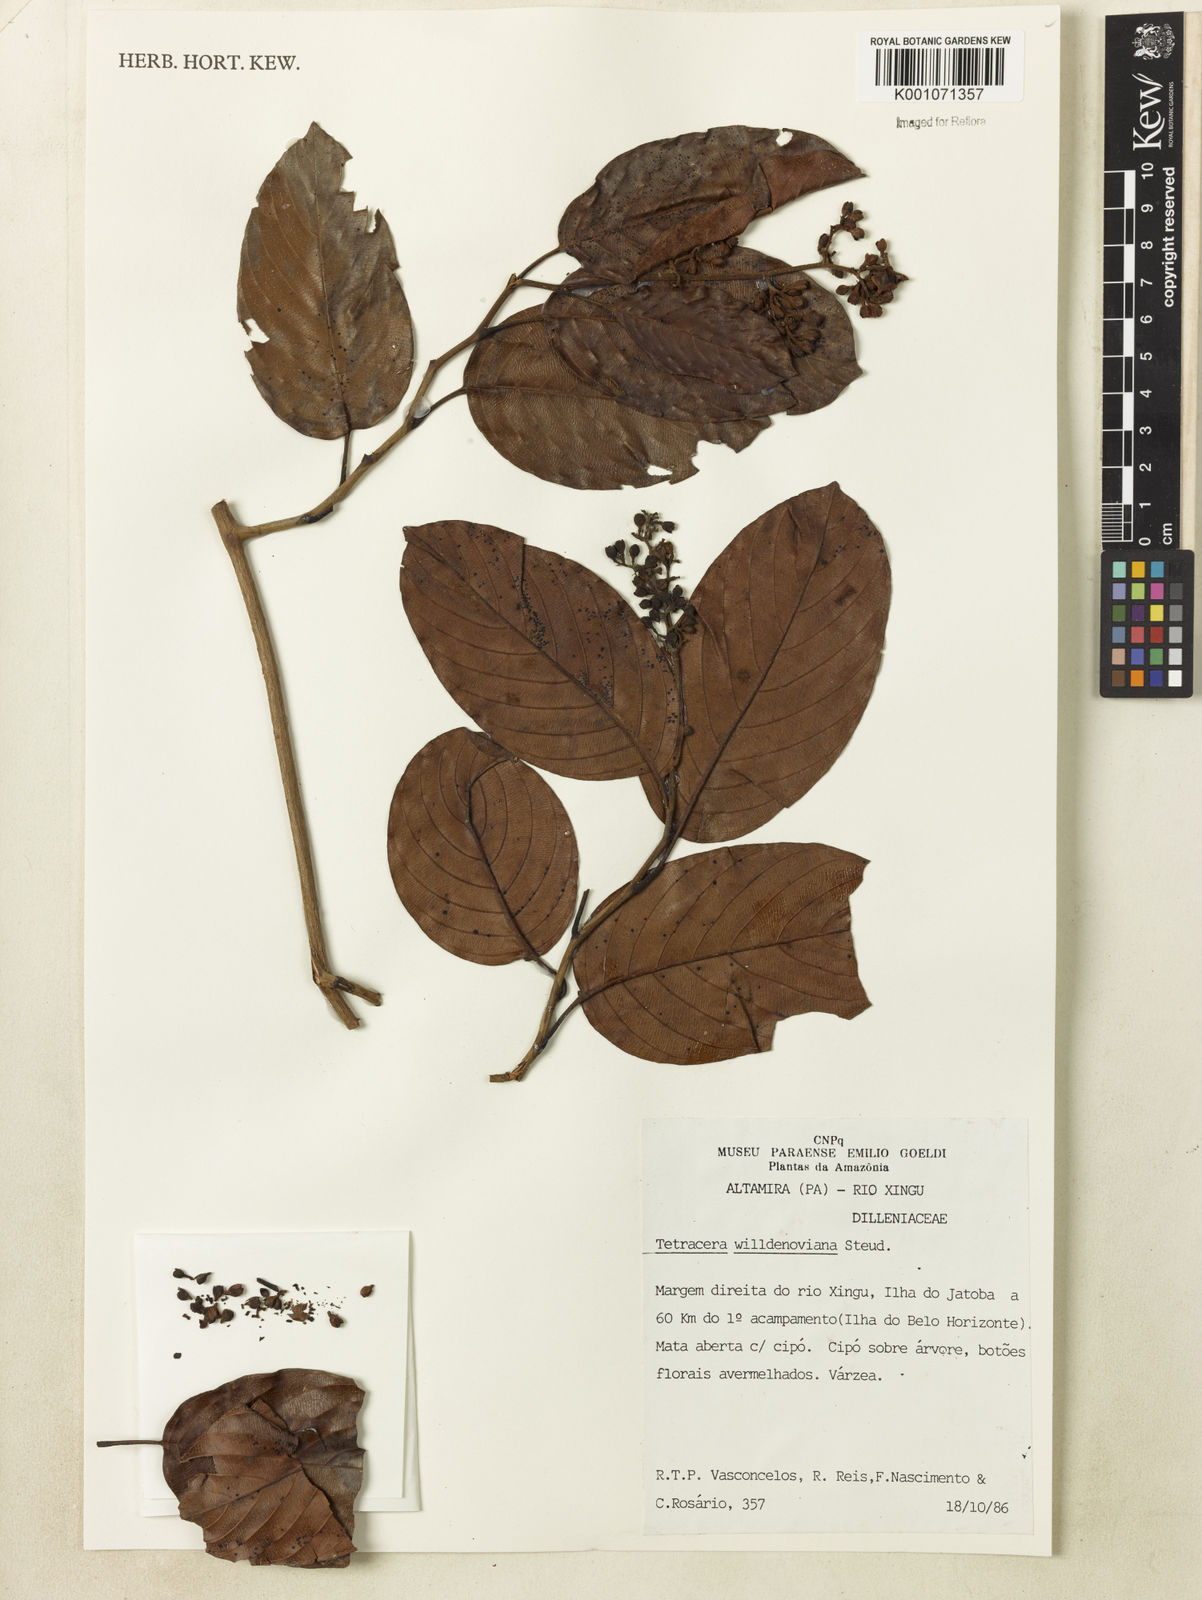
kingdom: Plantae
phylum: Tracheophyta
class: Magnoliopsida
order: Dilleniales
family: Dilleniaceae
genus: Tetracera
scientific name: Tetracera willdenowiana
